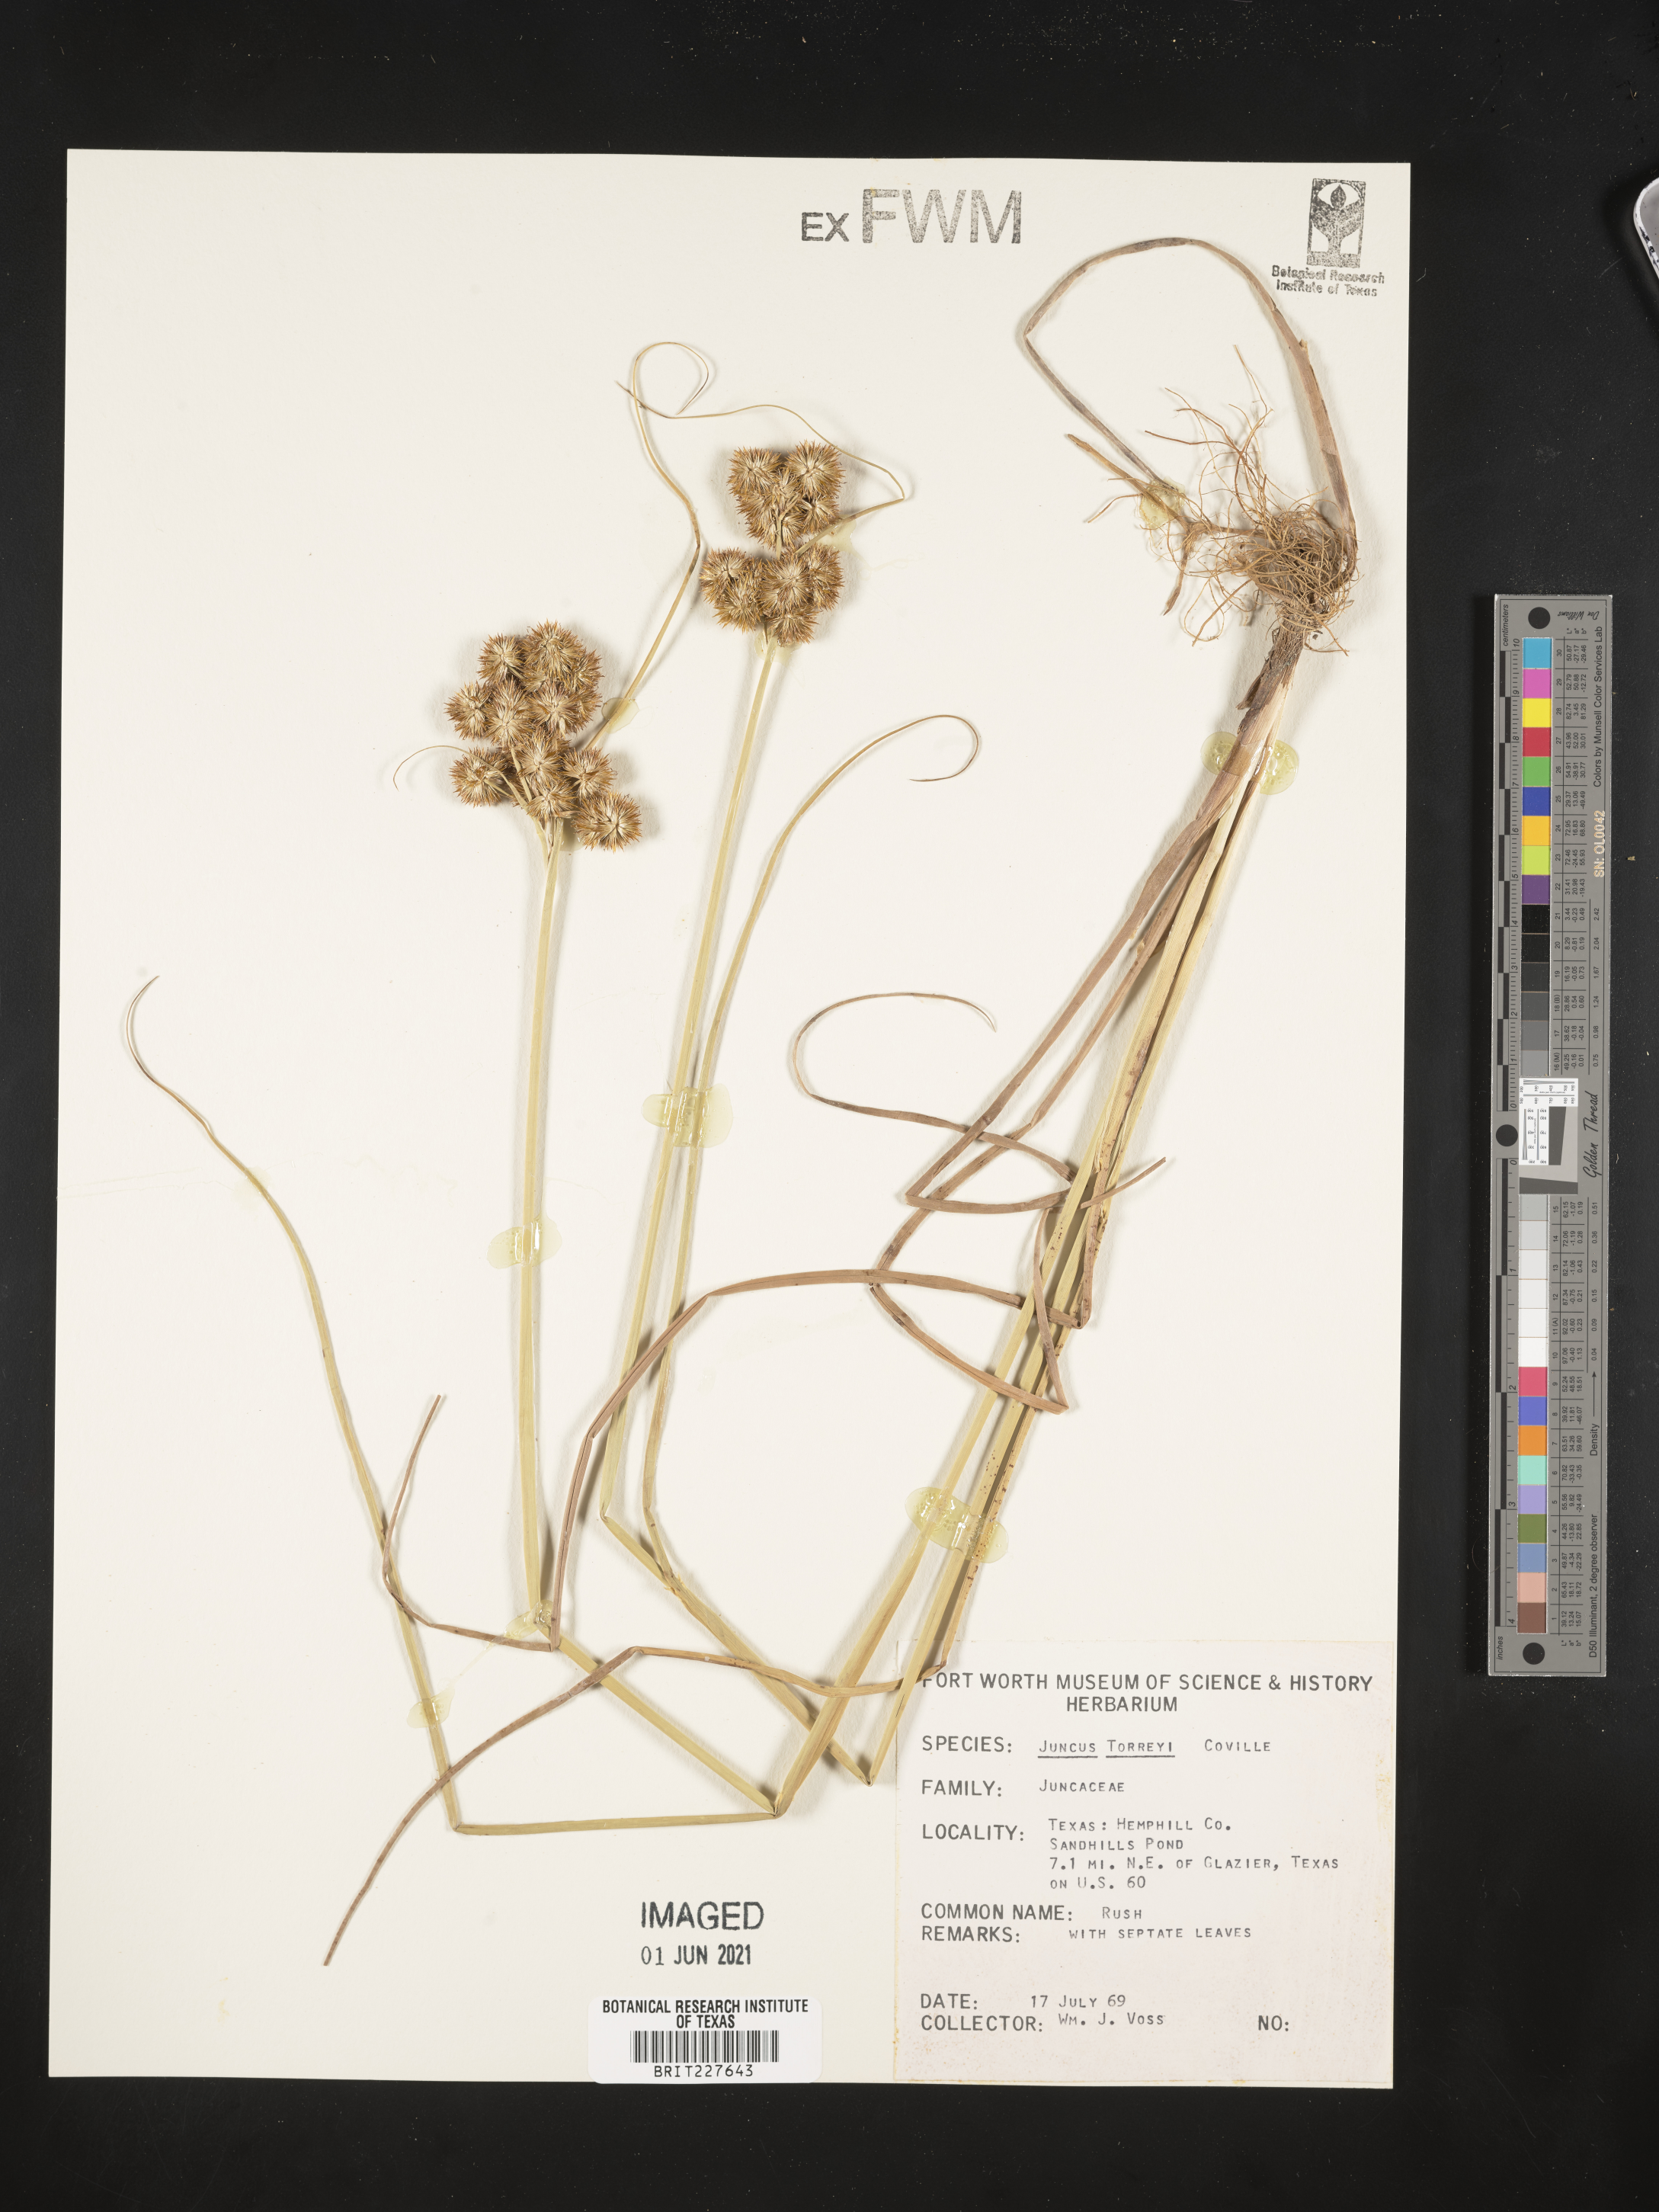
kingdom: Plantae
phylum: Tracheophyta
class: Liliopsida
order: Poales
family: Juncaceae
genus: Juncus
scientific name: Juncus torreyi
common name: Torrey's rush
